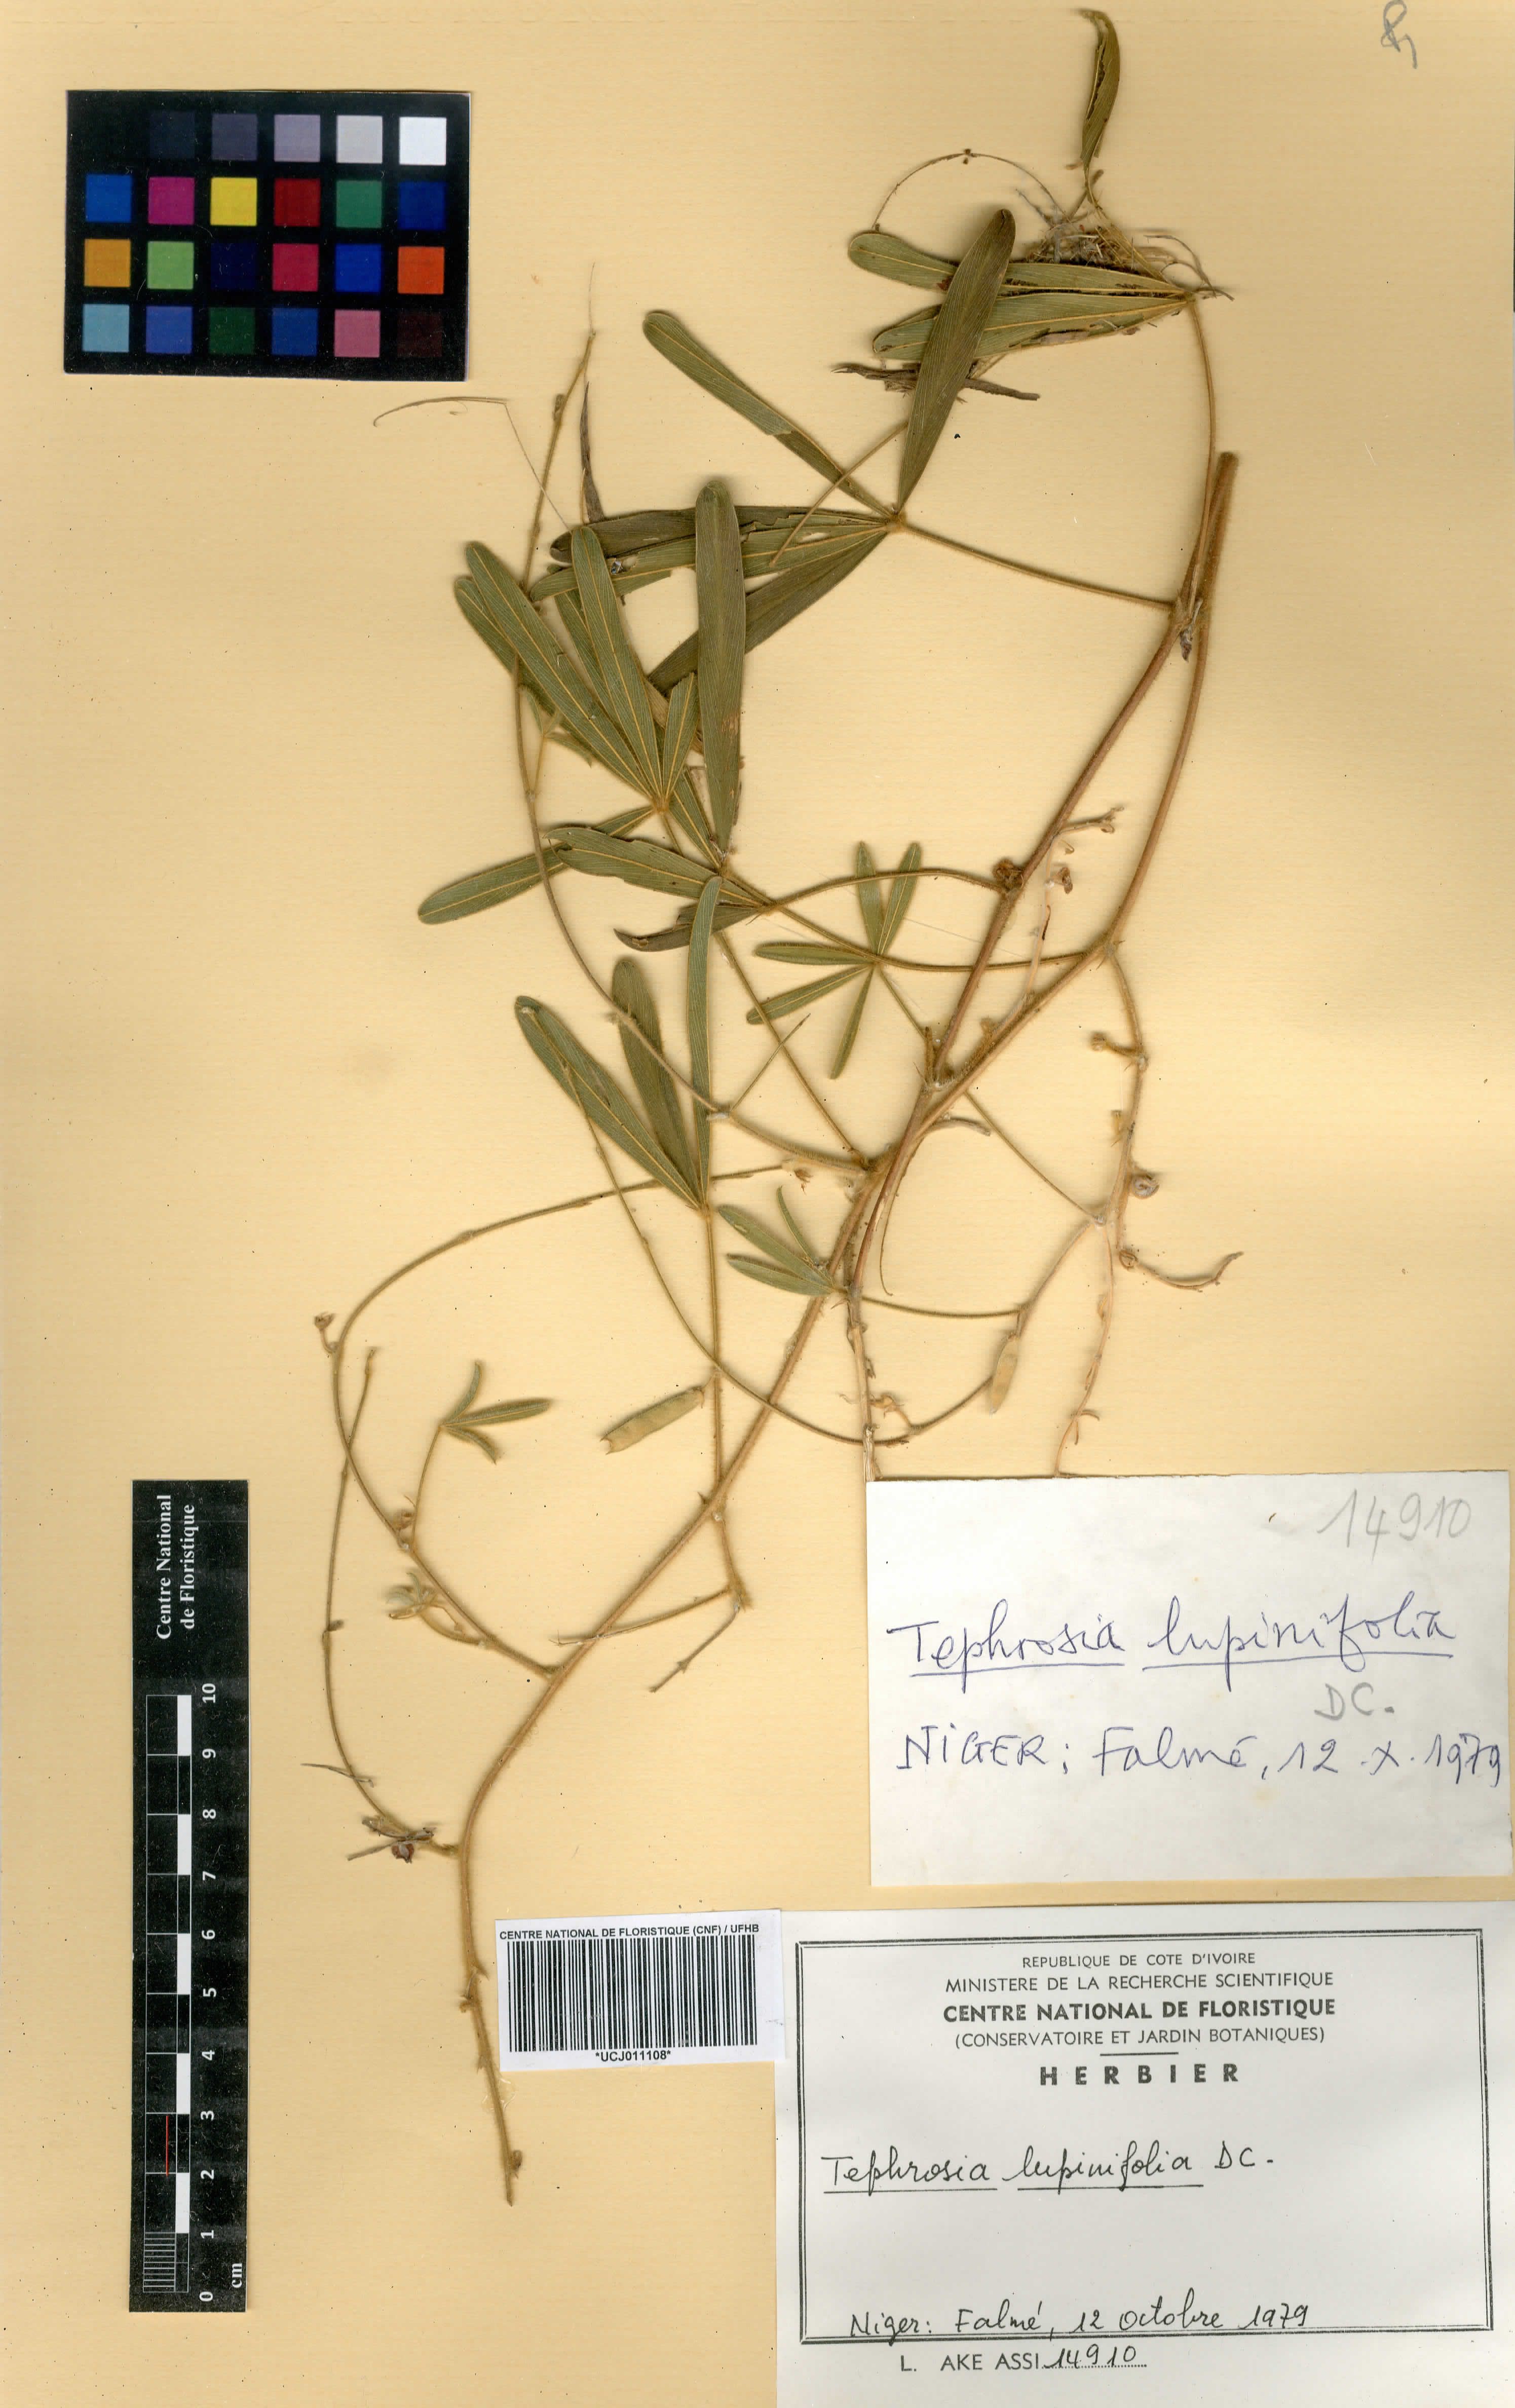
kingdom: Plantae
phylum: Tracheophyta
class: Magnoliopsida
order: Fabales
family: Fabaceae
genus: Tephrosia
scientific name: Tephrosia lupinifolia
